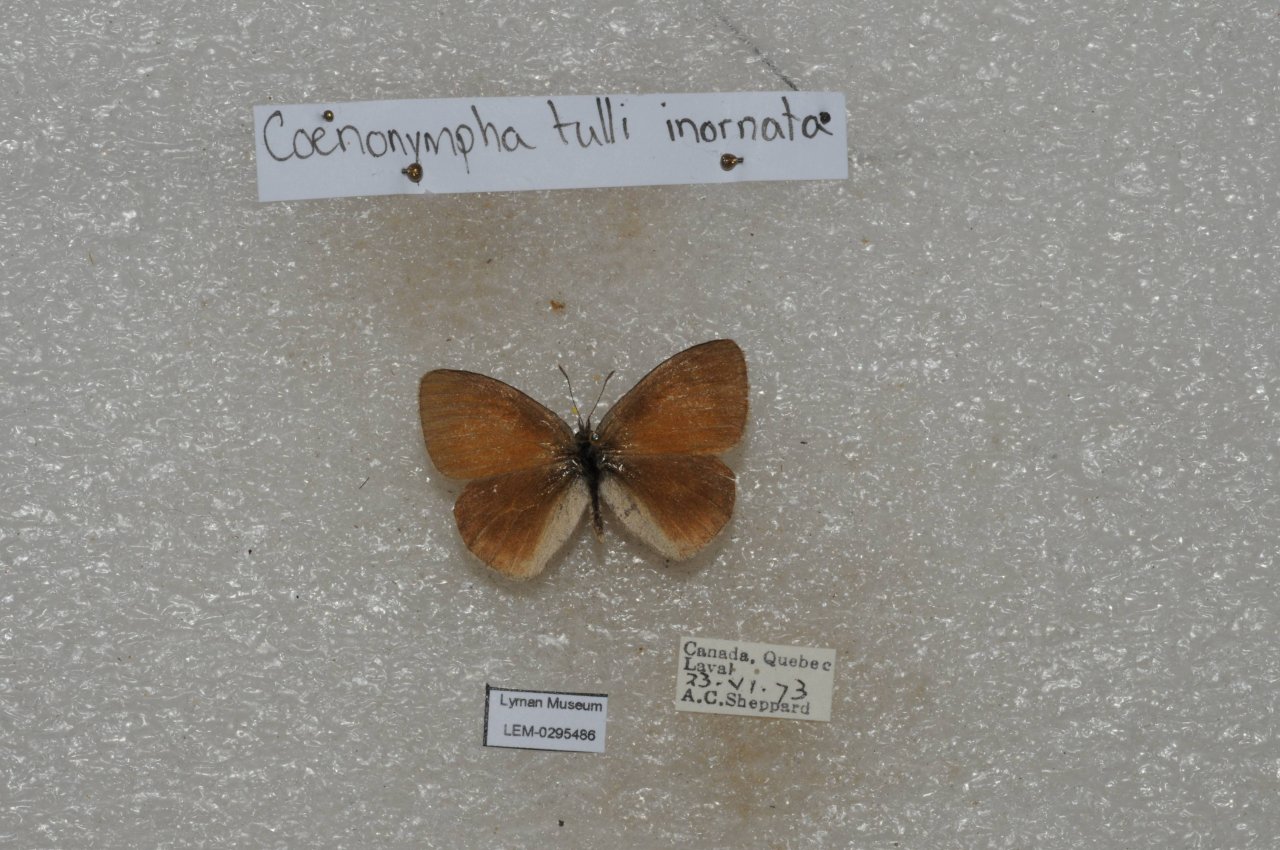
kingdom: Animalia
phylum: Arthropoda
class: Insecta
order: Lepidoptera
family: Nymphalidae
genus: Coenonympha
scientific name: Coenonympha tullia
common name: Large Heath
